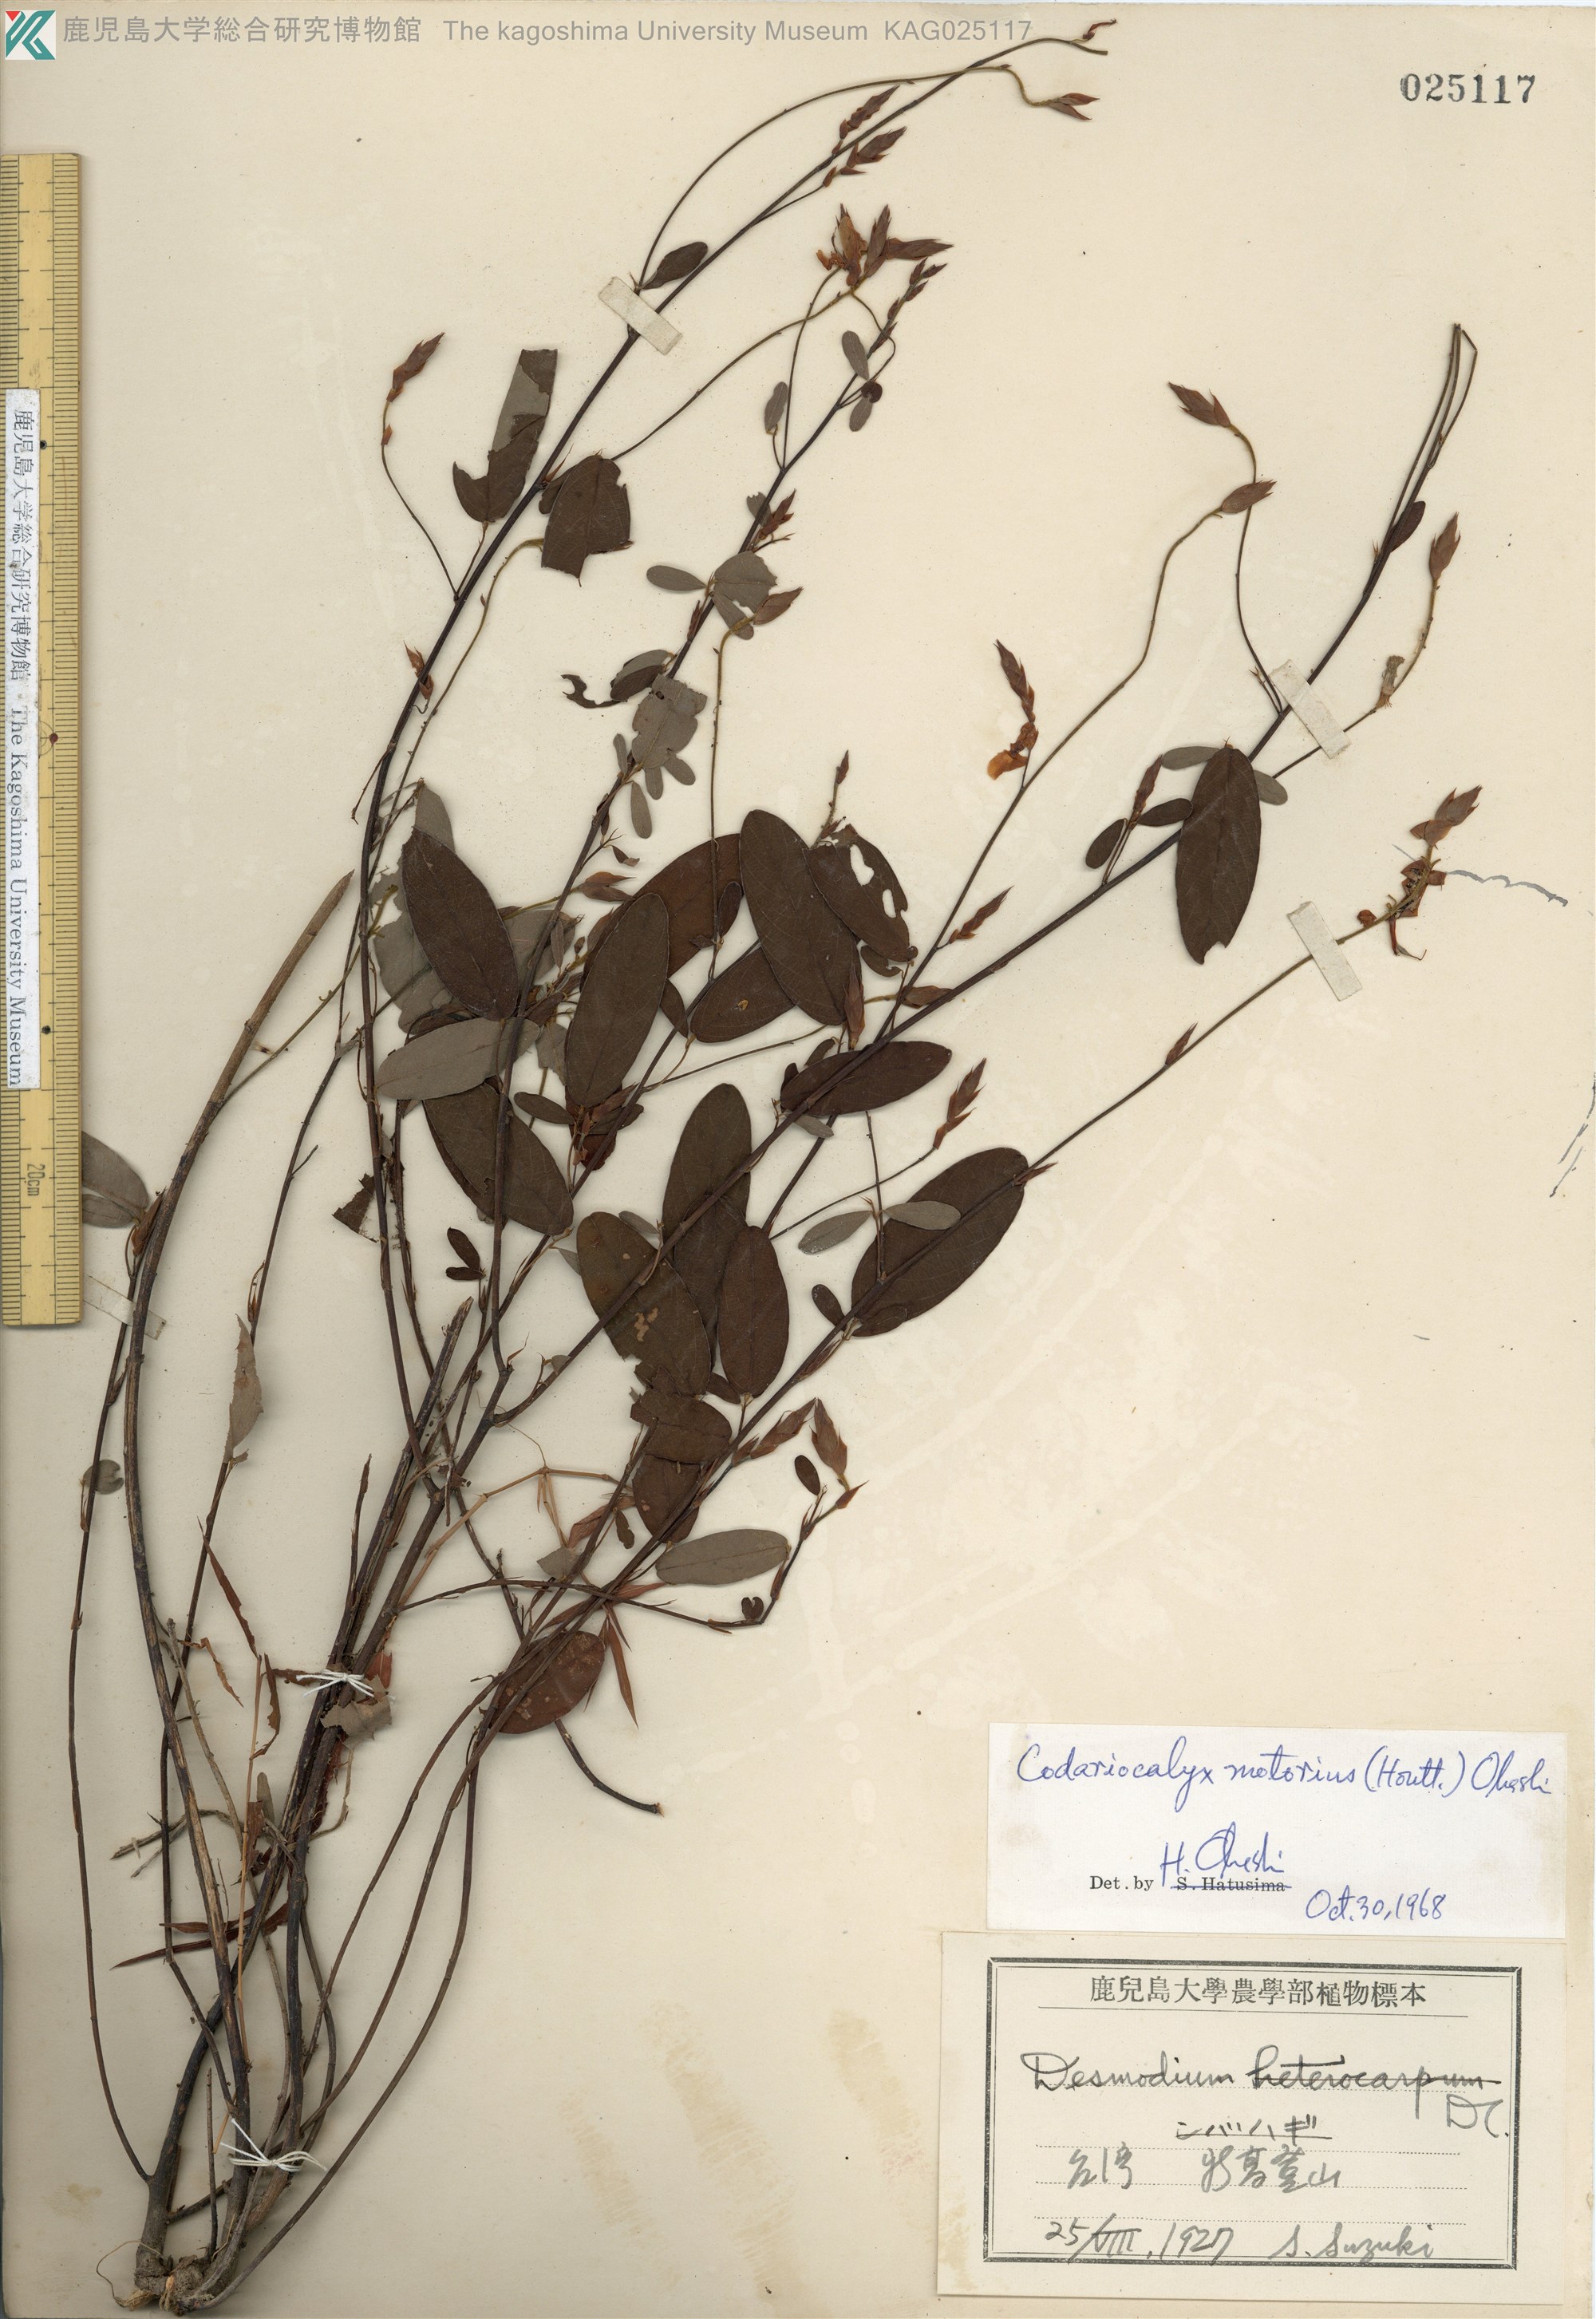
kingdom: Plantae
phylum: Tracheophyta
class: Magnoliopsida
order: Fabales
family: Fabaceae
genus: Codariocalyx
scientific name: Codariocalyx motorius
